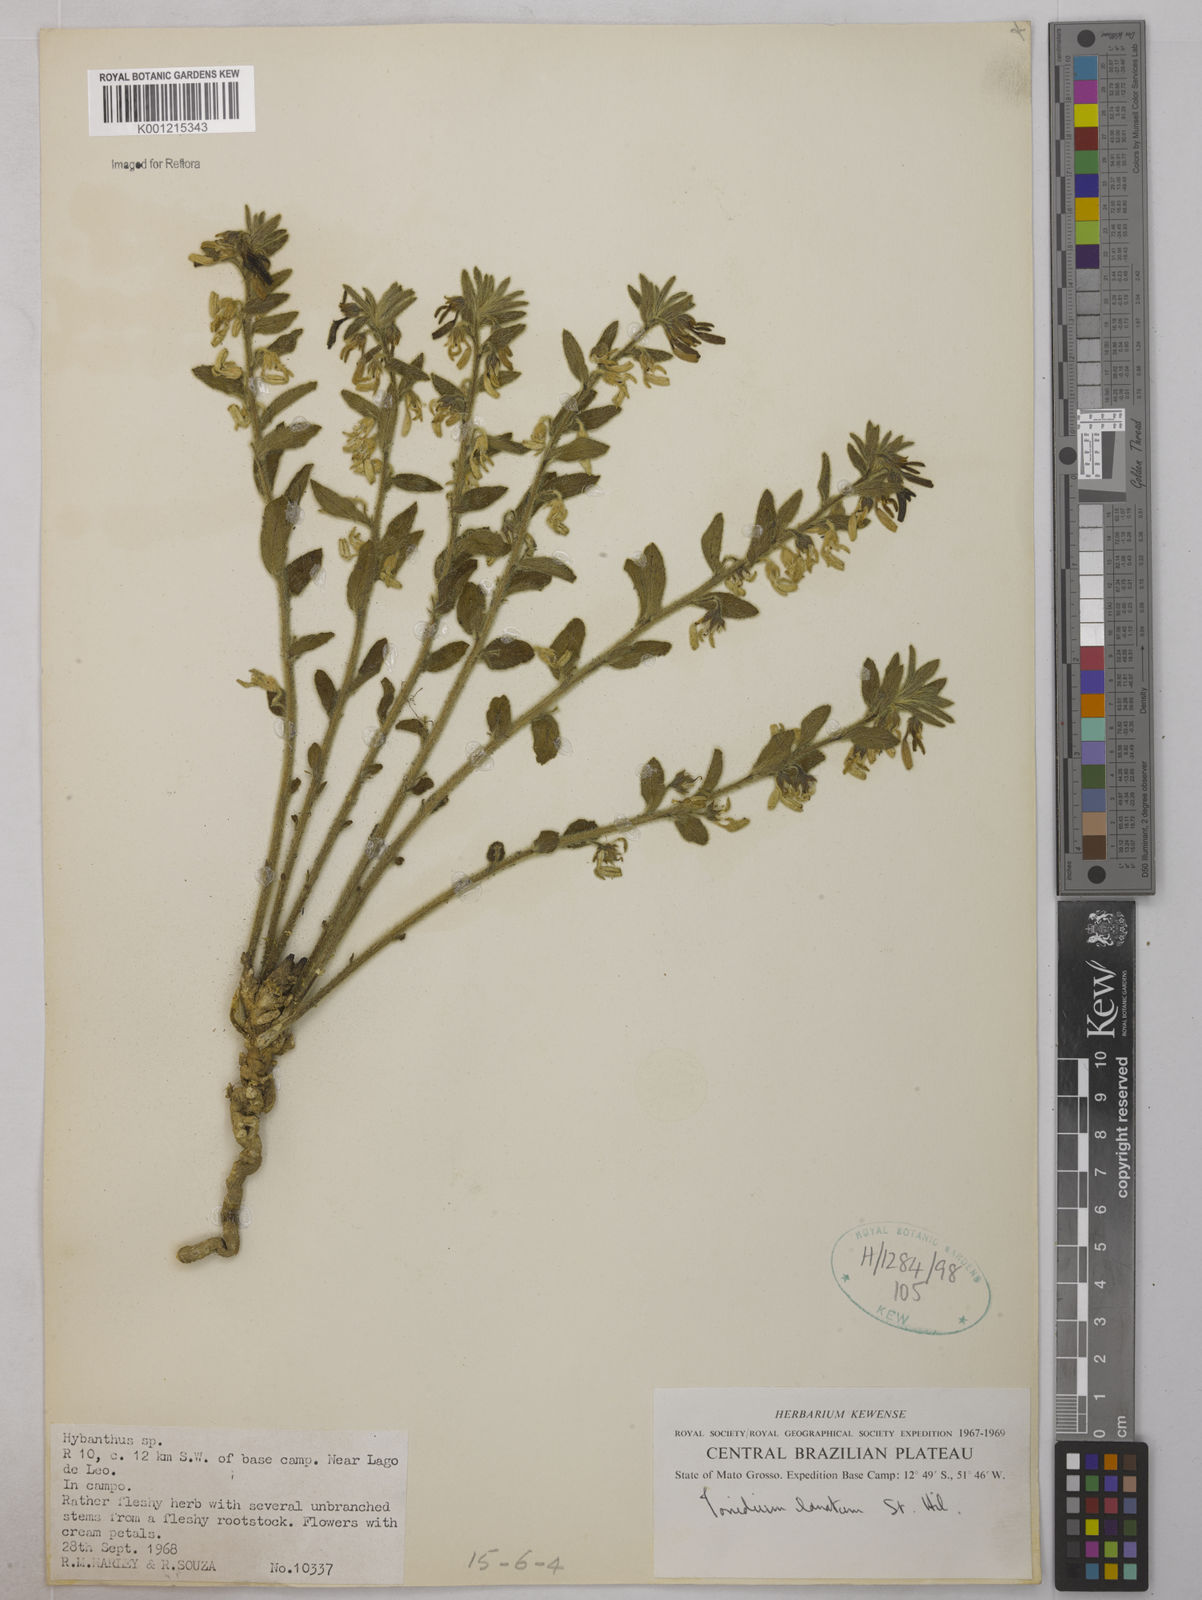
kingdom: Plantae
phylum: Tracheophyta
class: Magnoliopsida
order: Malpighiales
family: Violaceae
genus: Pombalia
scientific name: Pombalia lanata
